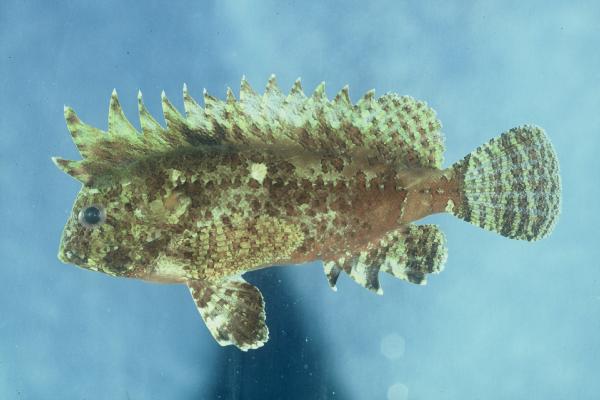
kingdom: Animalia
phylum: Chordata
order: Scorpaeniformes
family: Tetrarogidae
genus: Paracentropogon
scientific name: Paracentropogon vespa
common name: Wasp roguefish
